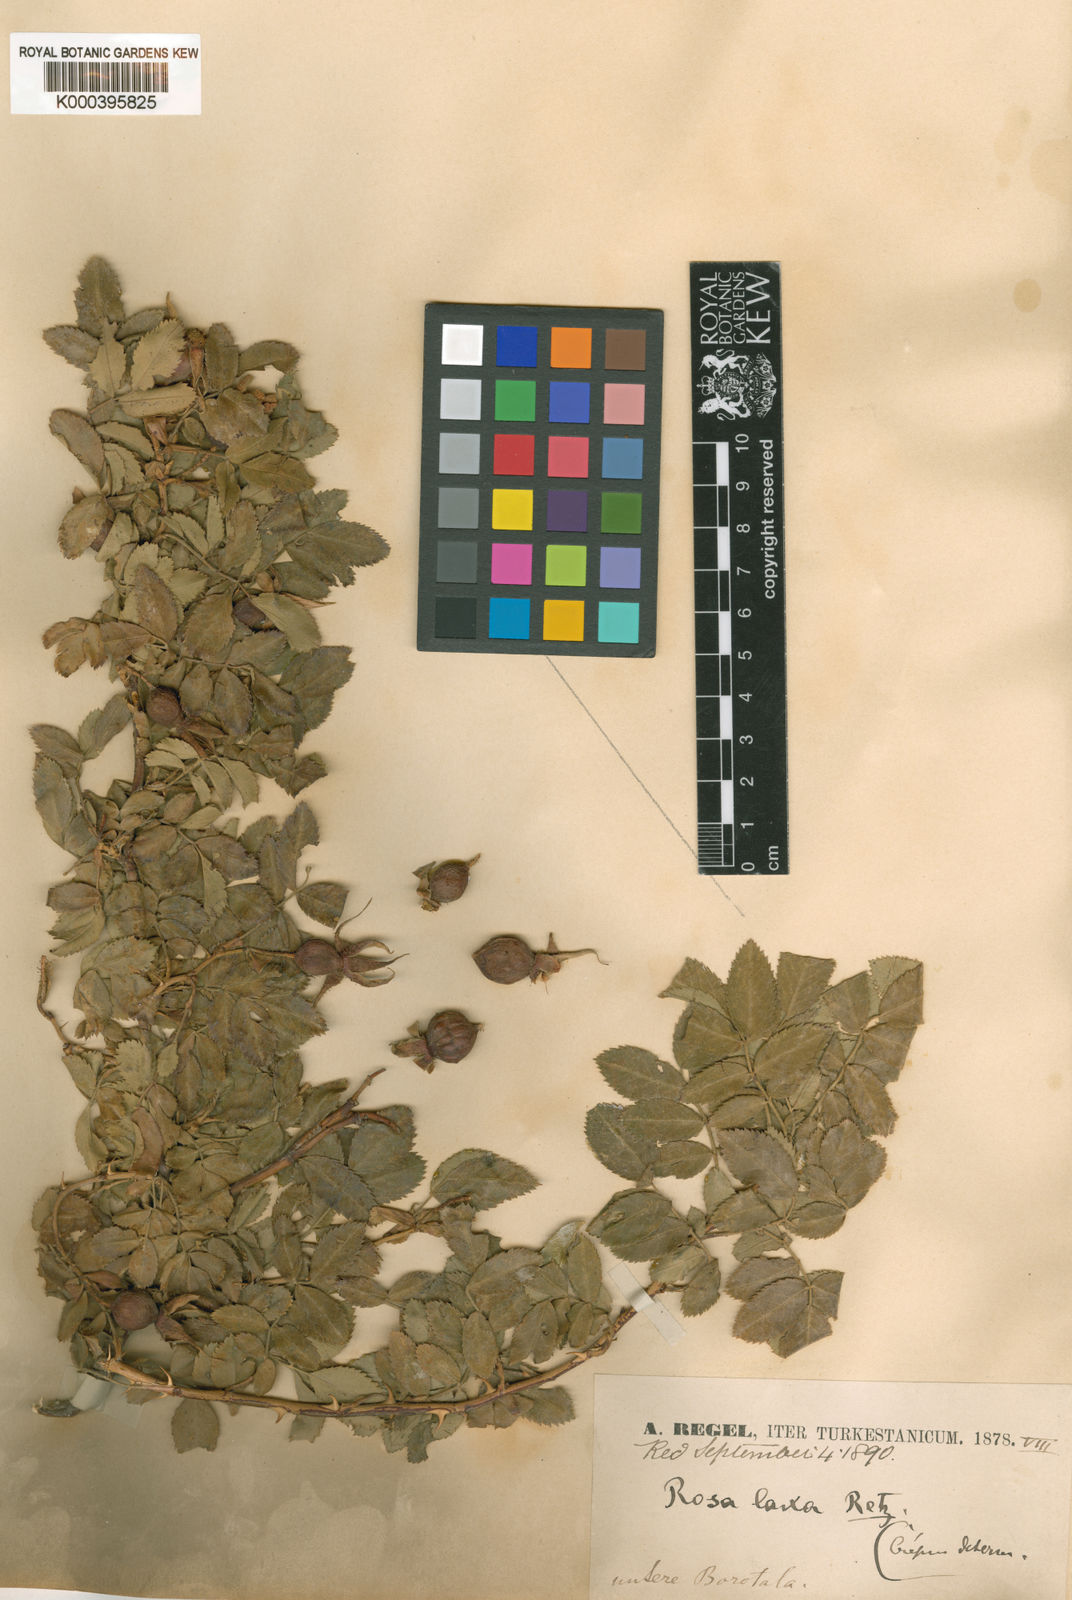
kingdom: Plantae
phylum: Tracheophyta
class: Magnoliopsida
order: Rosales
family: Rosaceae
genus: Rosa
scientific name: Rosa laxa
